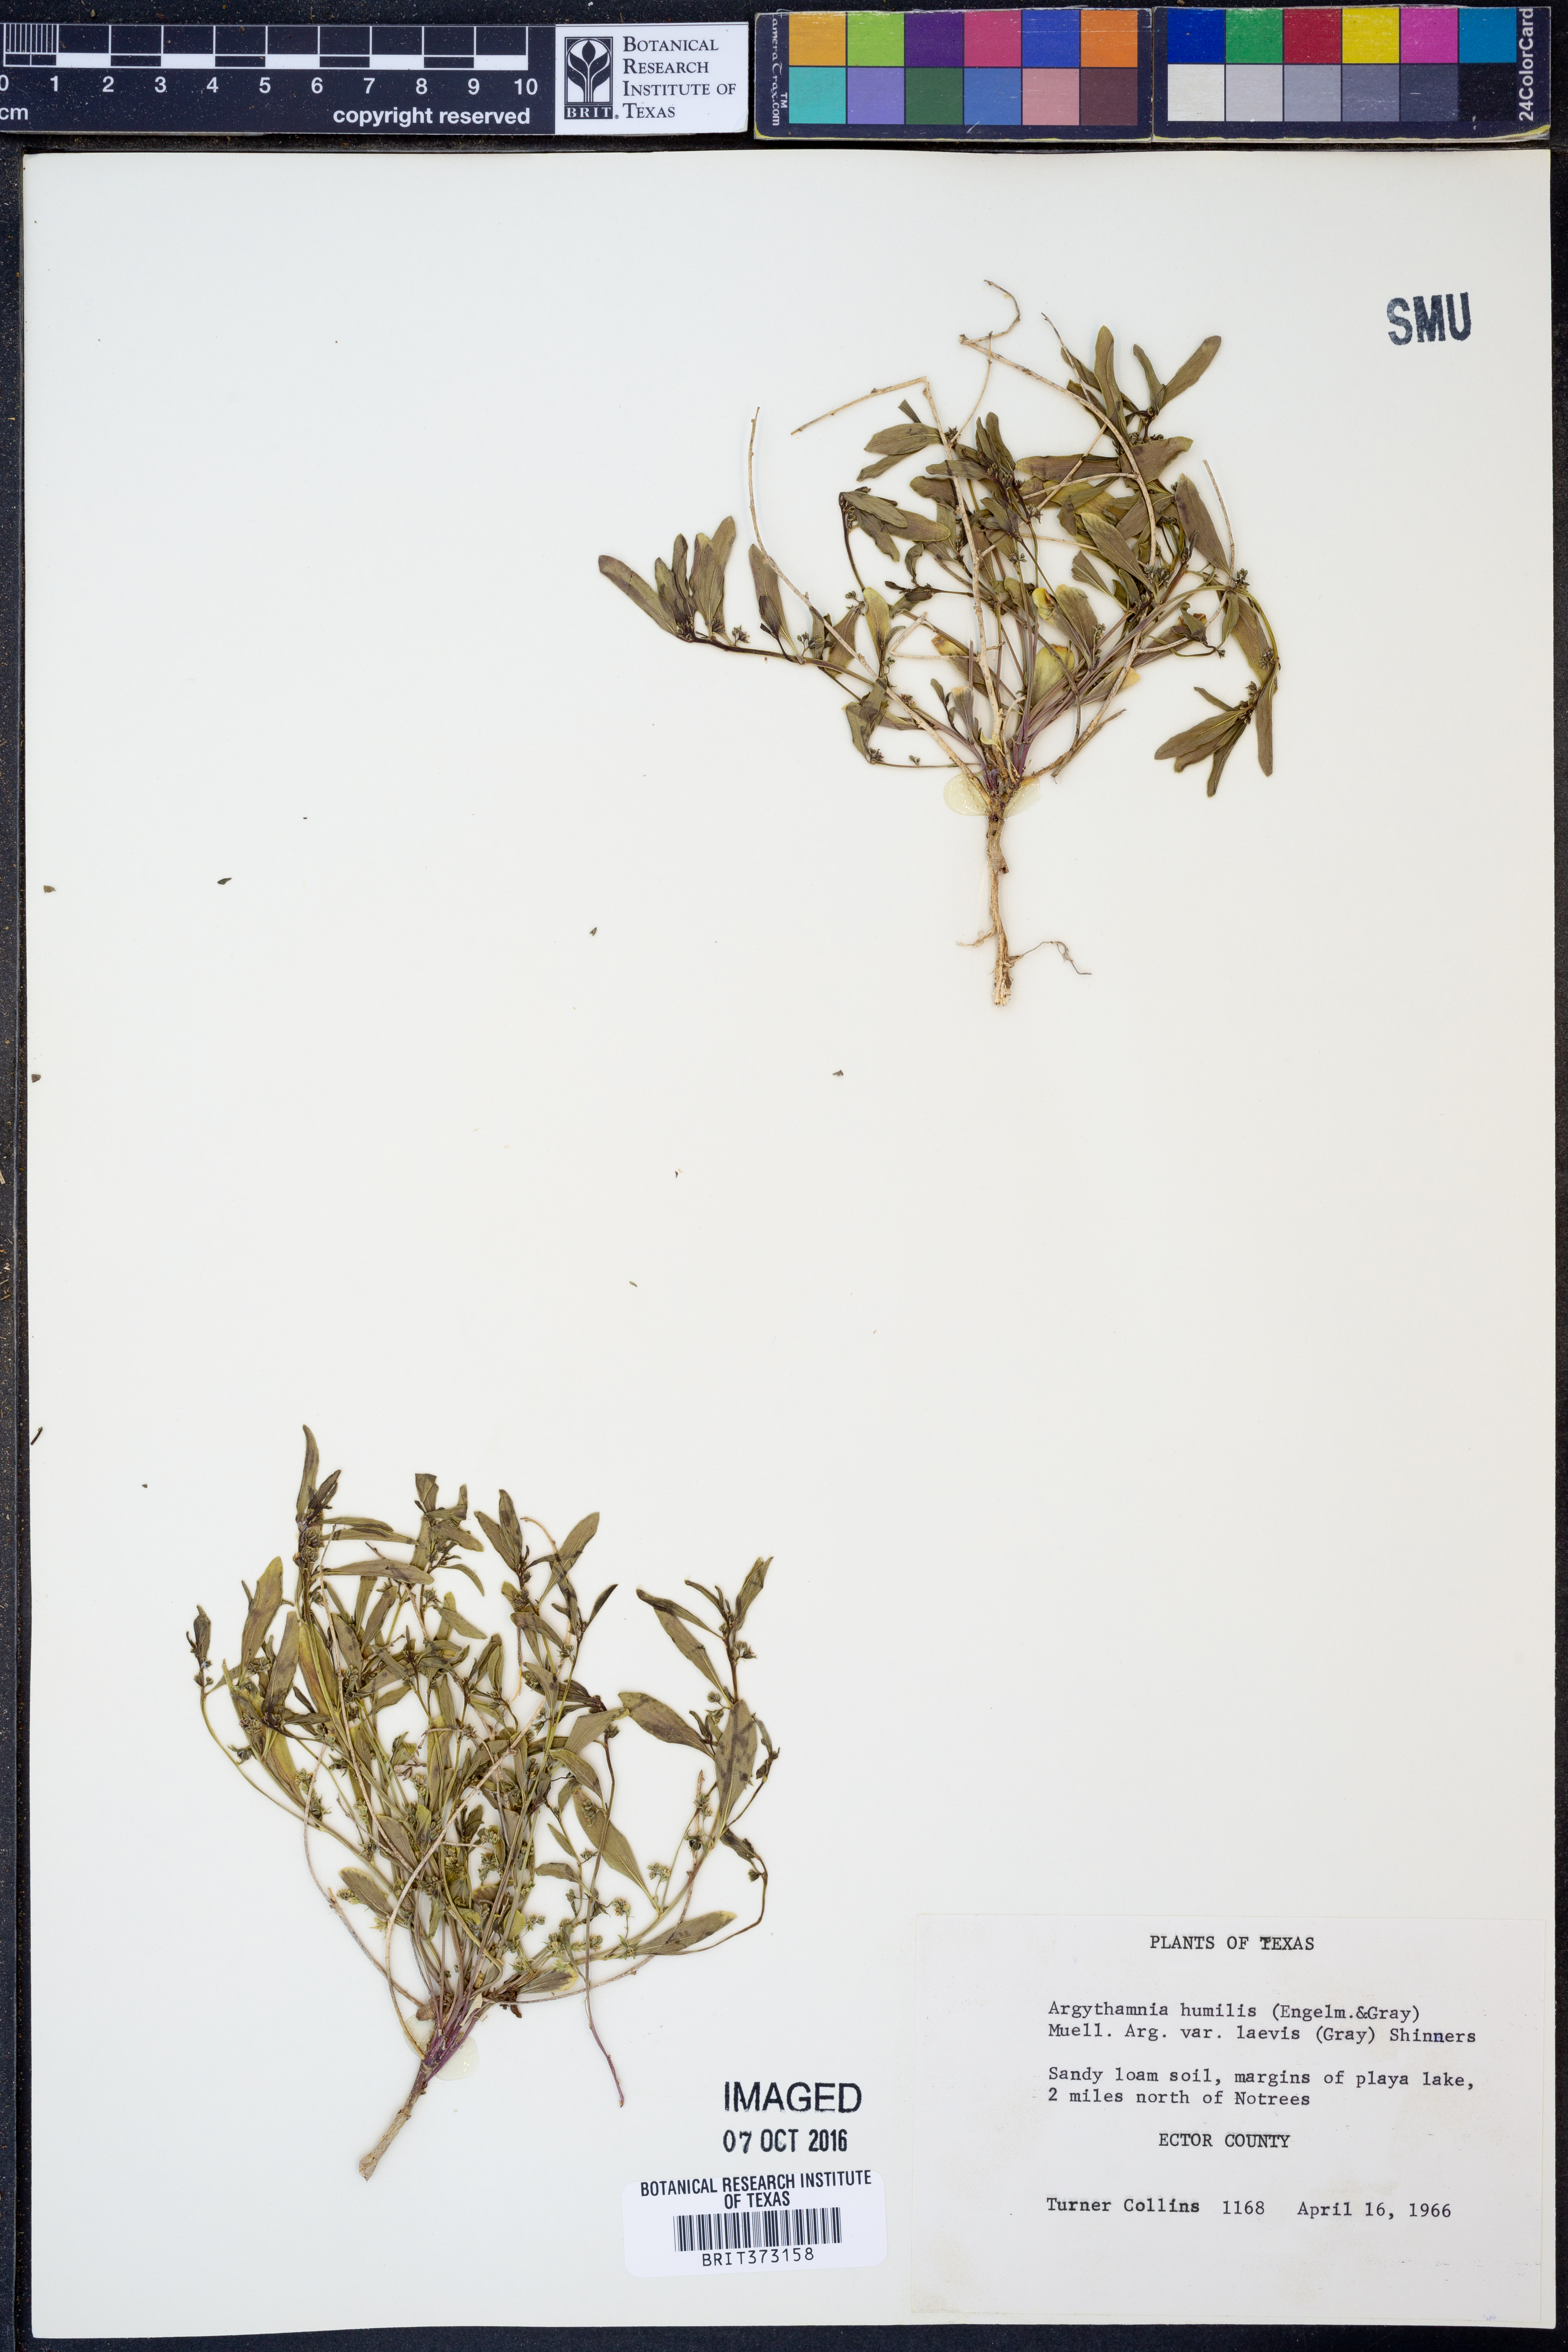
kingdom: Plantae
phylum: Tracheophyta
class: Magnoliopsida
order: Malpighiales
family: Euphorbiaceae
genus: Ditaxis
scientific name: Ditaxis humilis
